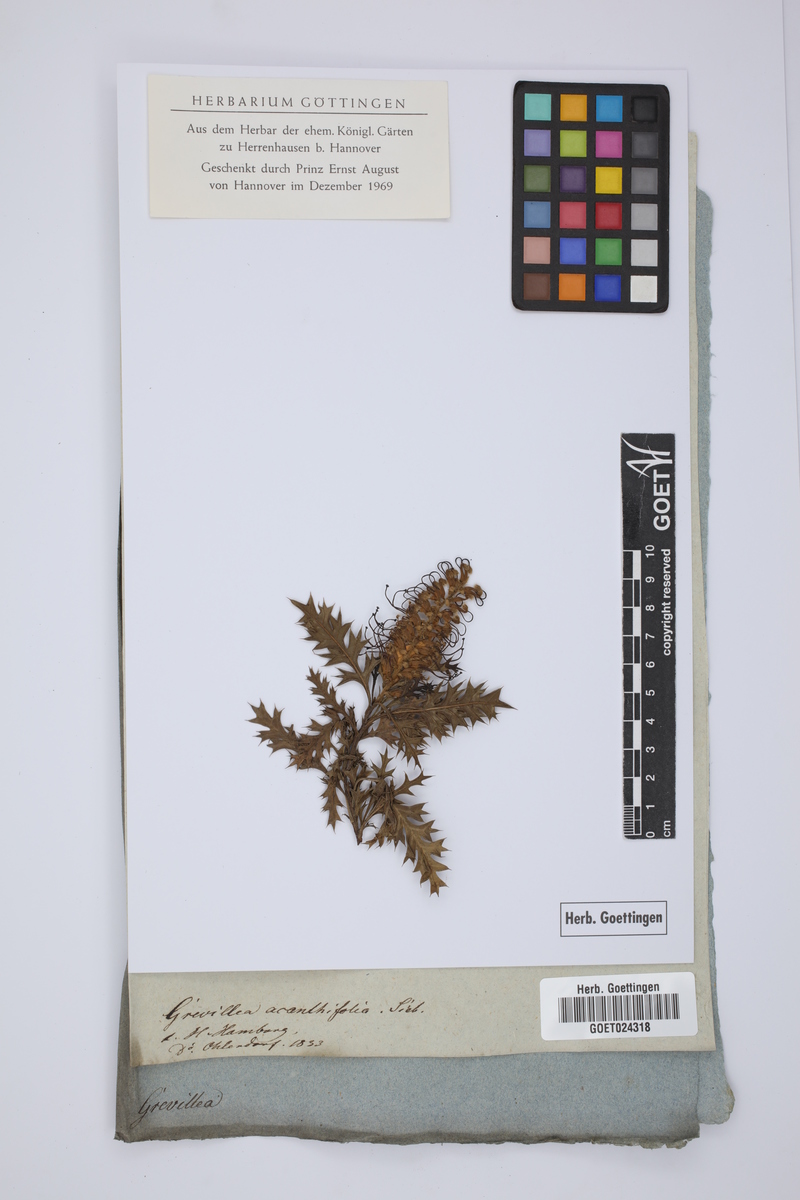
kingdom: Plantae
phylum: Tracheophyta
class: Magnoliopsida
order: Proteales
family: Proteaceae
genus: Grevillea
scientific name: Grevillea acanthifolia
